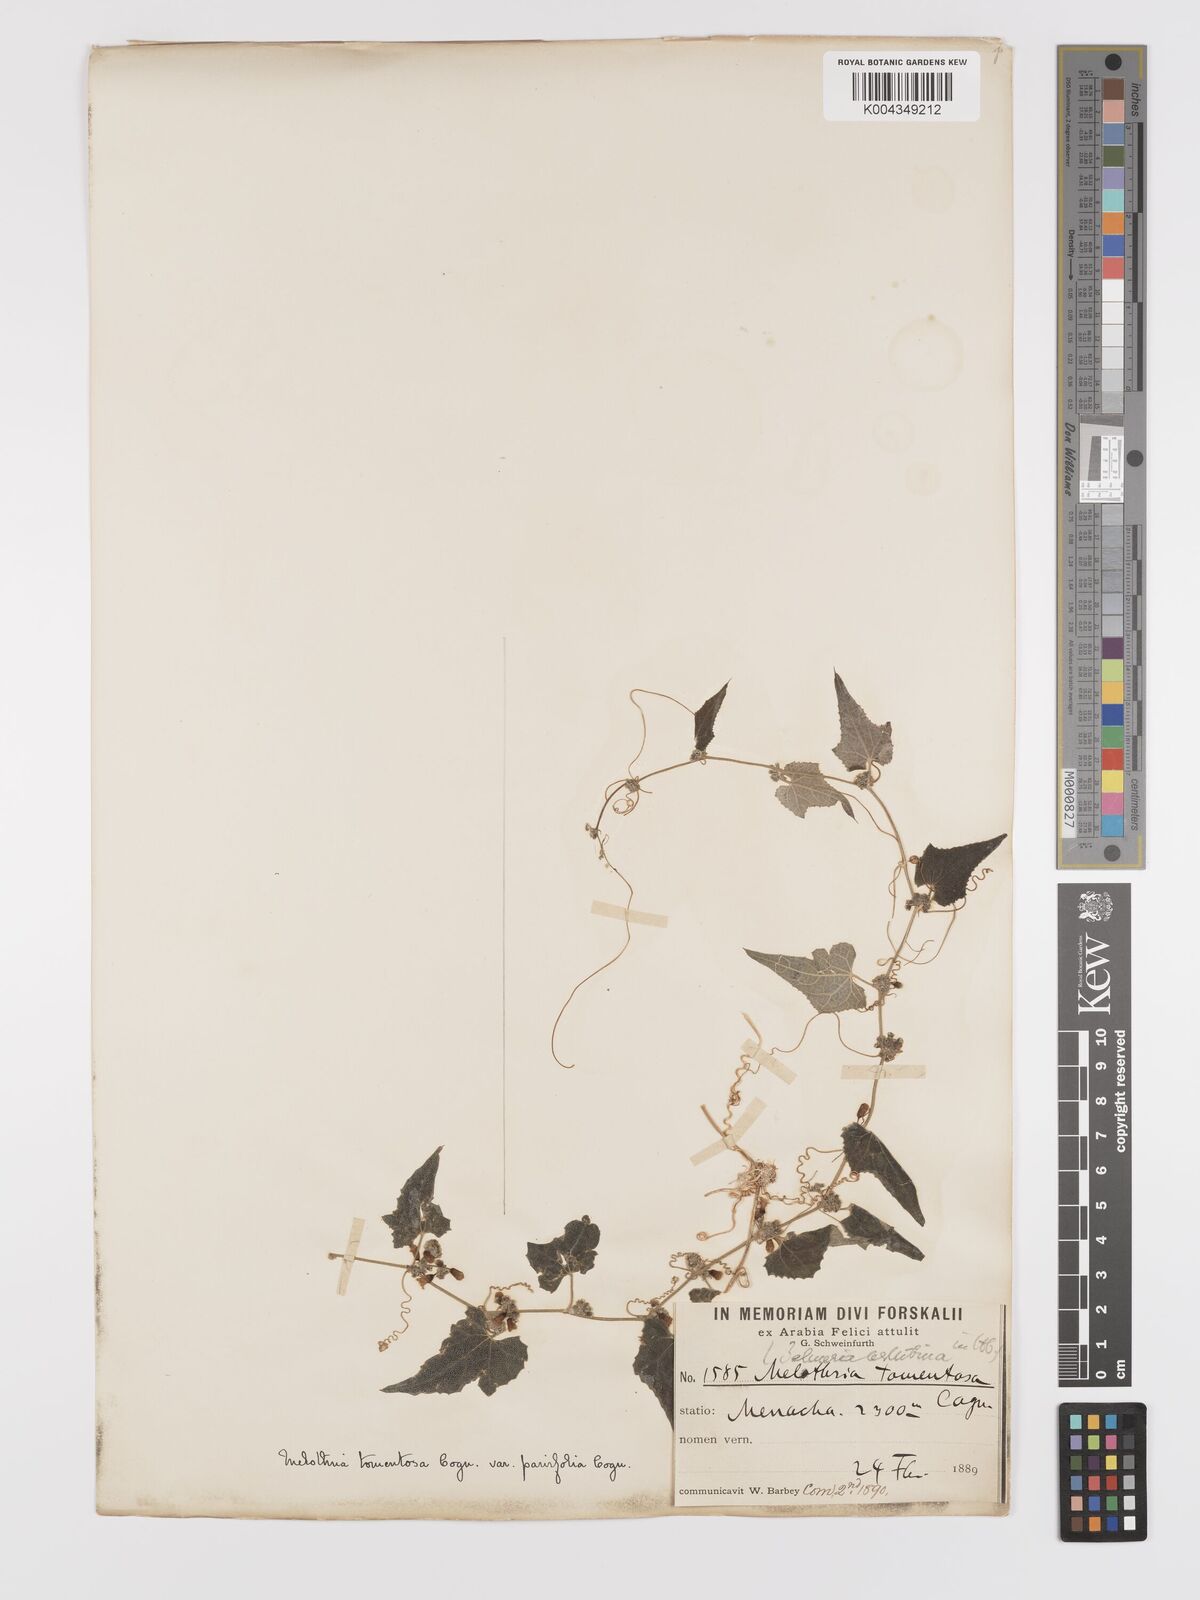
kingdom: Plantae
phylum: Tracheophyta
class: Magnoliopsida
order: Cucurbitales
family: Cucurbitaceae
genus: Zehneria
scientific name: Zehneria scabra
